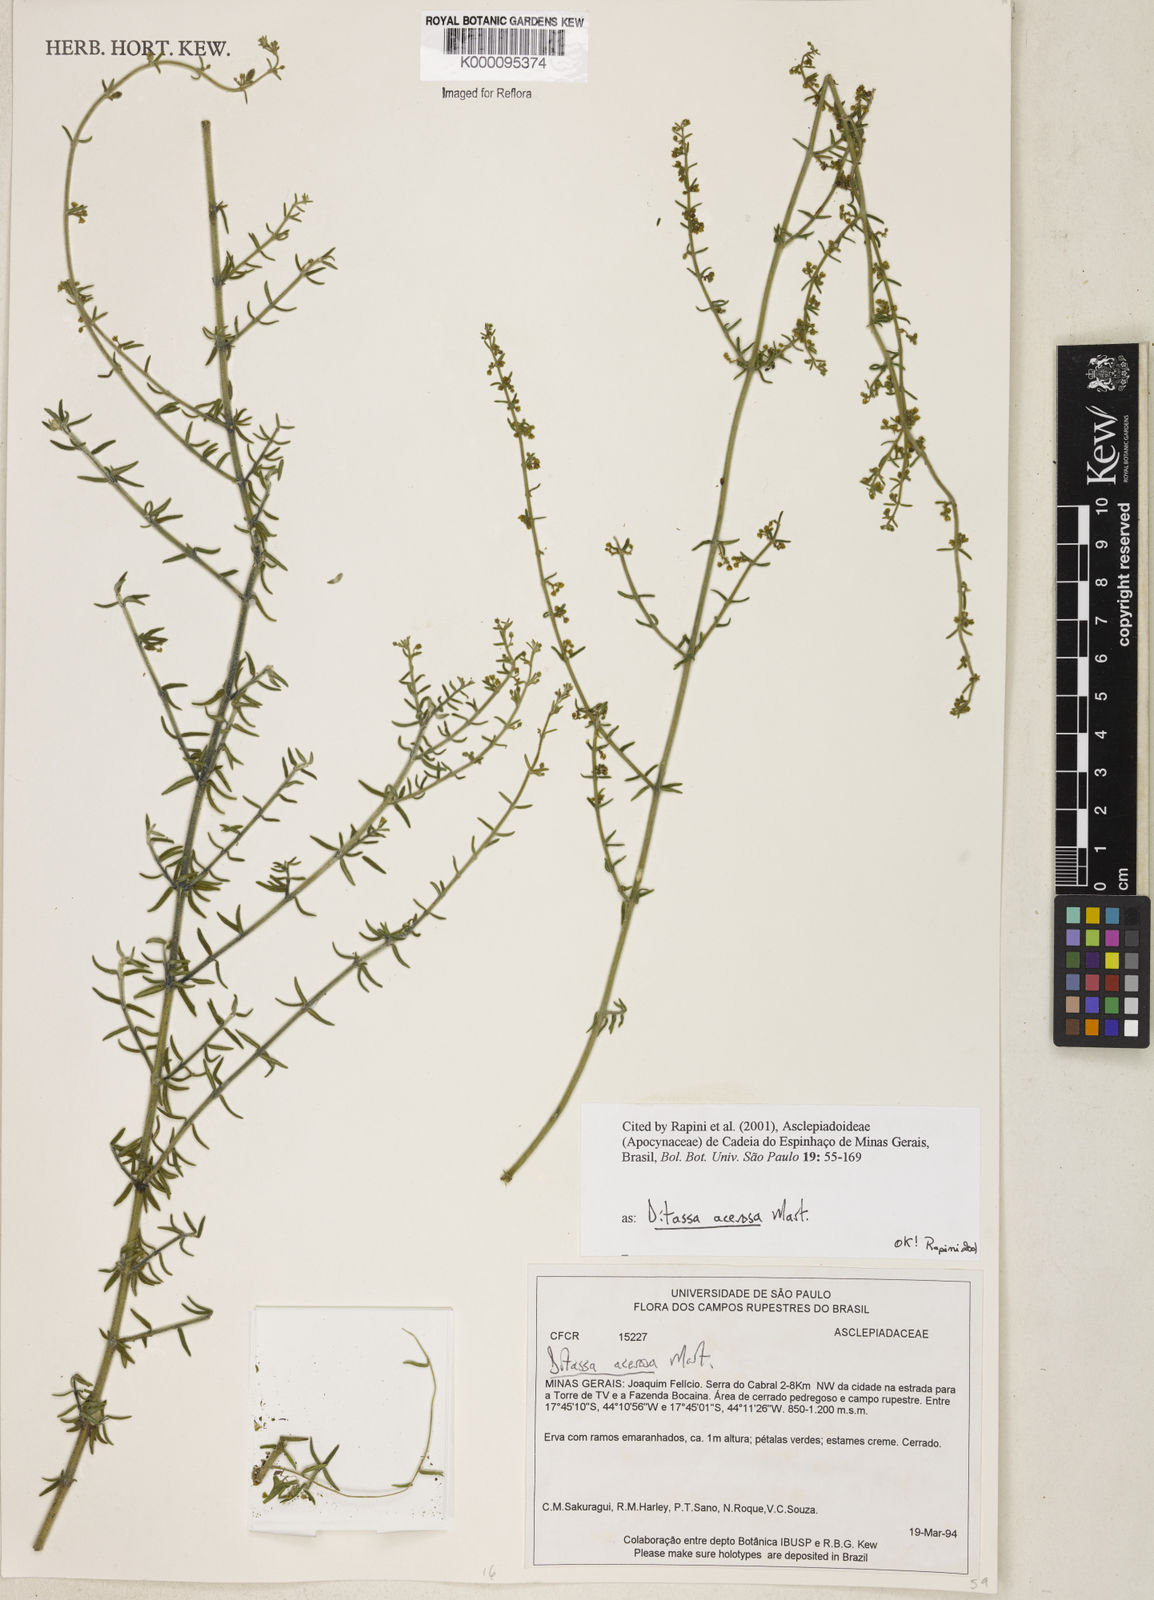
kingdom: Plantae
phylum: Tracheophyta
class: Magnoliopsida
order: Gentianales
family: Apocynaceae
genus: Minaria
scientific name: Minaria acerosa
